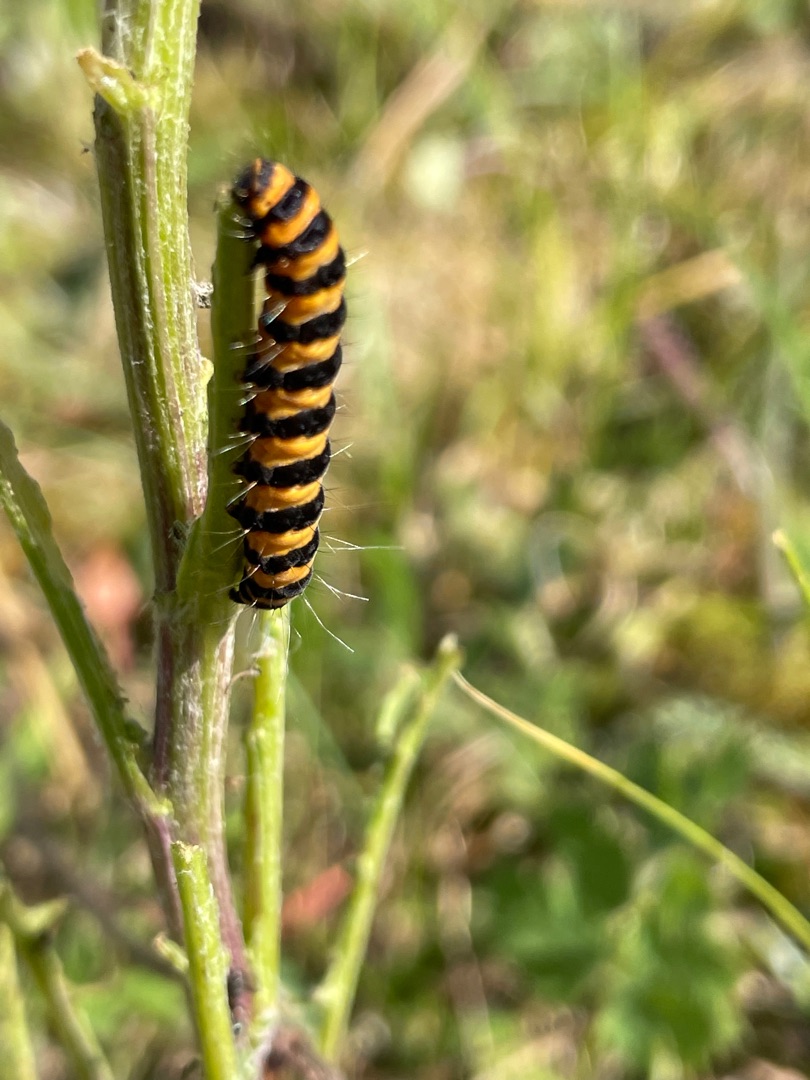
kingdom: Animalia
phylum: Arthropoda
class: Insecta
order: Lepidoptera
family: Erebidae
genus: Tyria
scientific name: Tyria jacobaeae
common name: Blodplet
